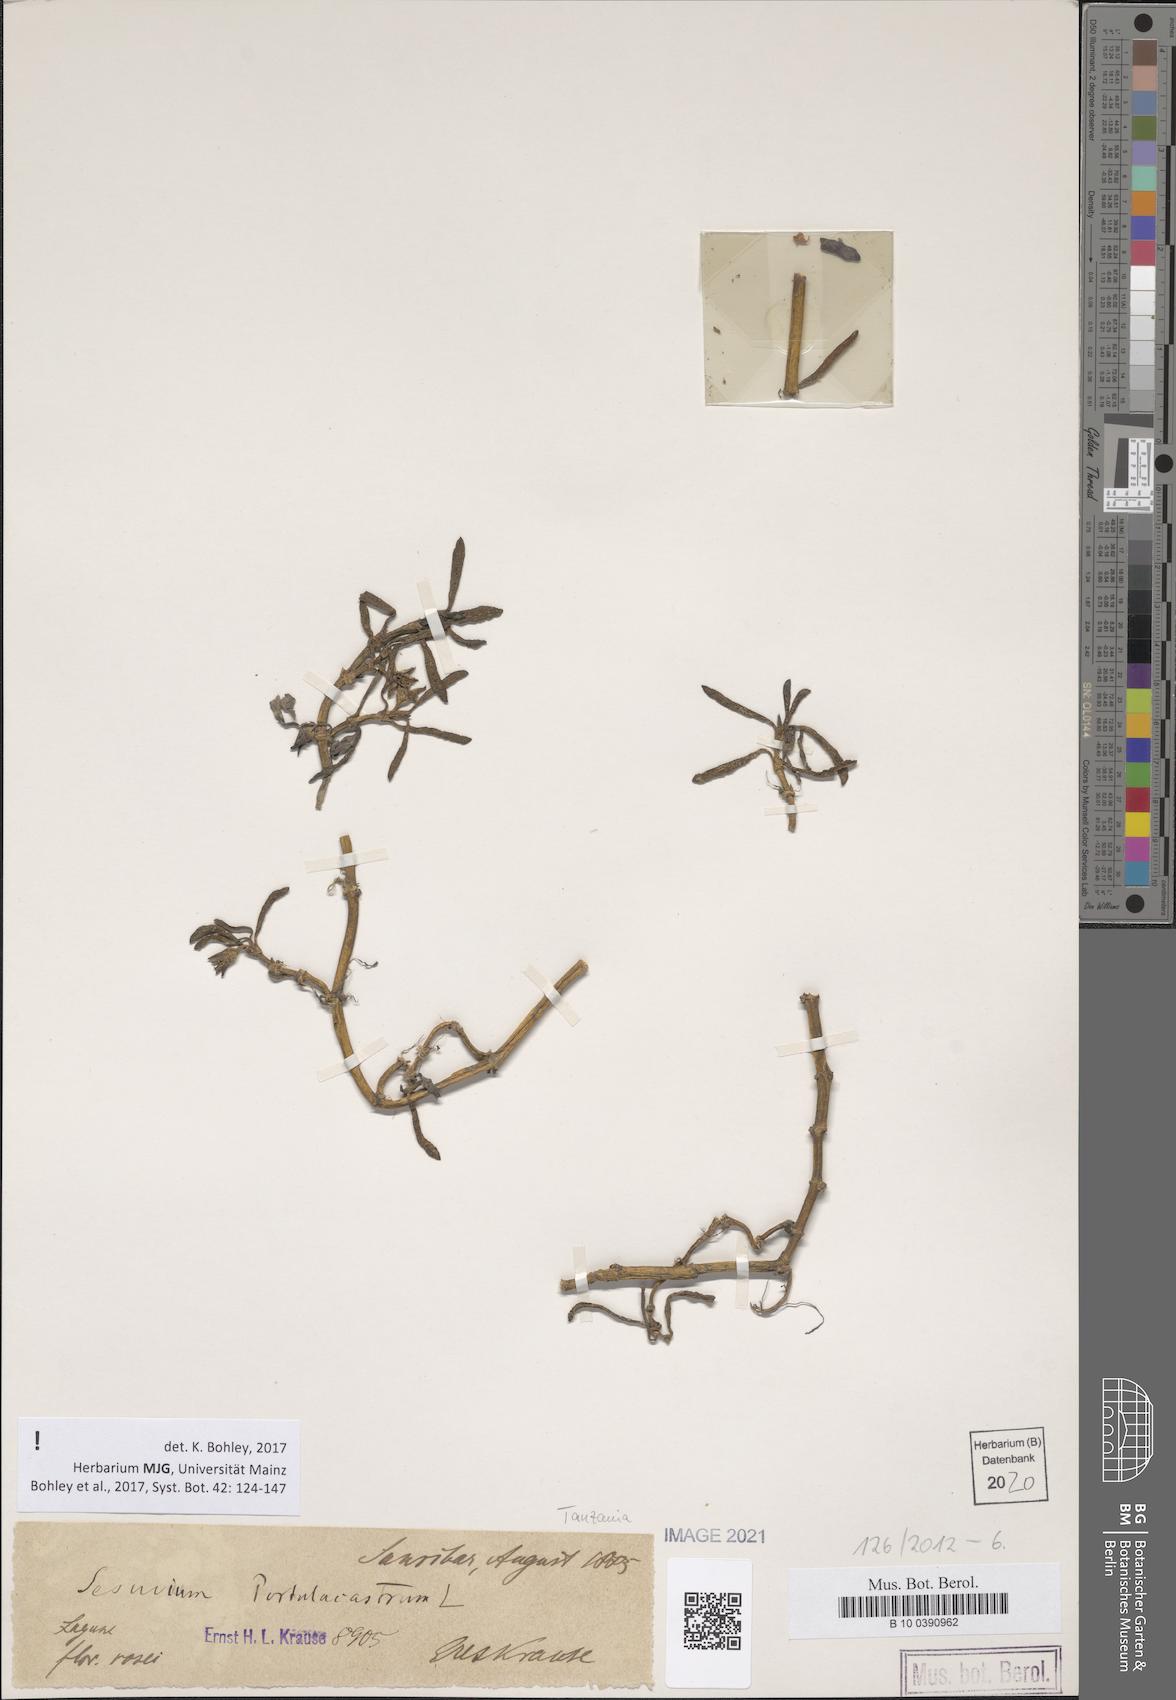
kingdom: Plantae
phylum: Tracheophyta
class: Magnoliopsida
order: Caryophyllales
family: Aizoaceae
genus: Sesuvium
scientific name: Sesuvium portulacastrum
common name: Sea-purslane
